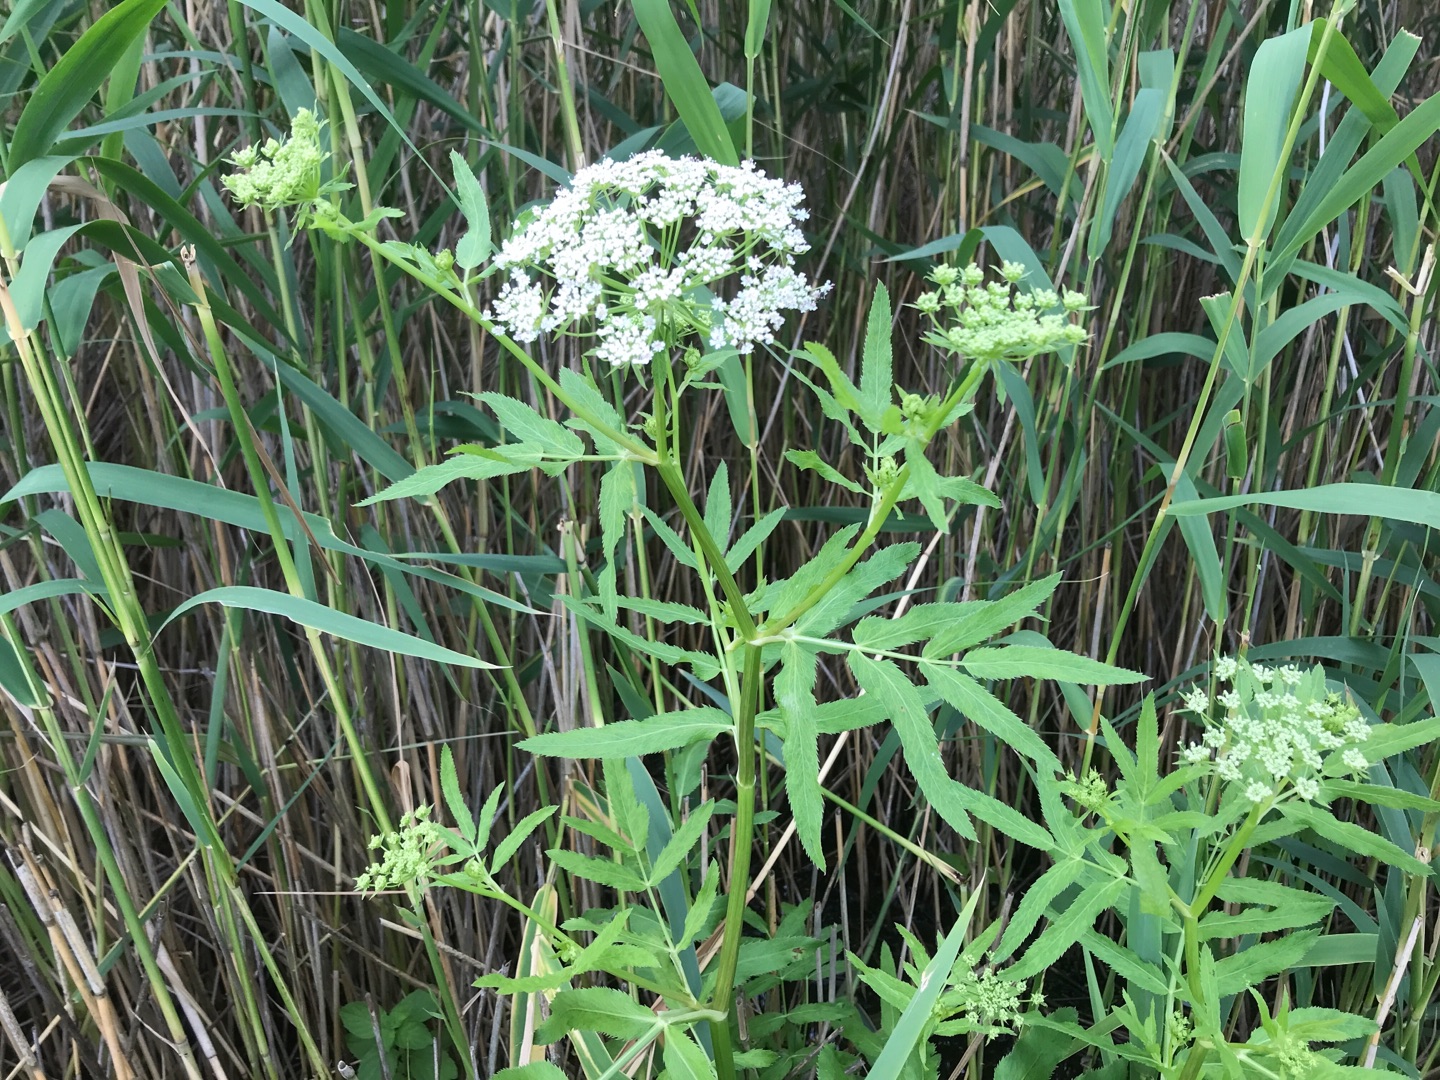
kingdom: Plantae
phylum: Tracheophyta
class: Magnoliopsida
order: Apiales
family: Apiaceae
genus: Sium
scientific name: Sium latifolium
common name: Bredbladet mærke
